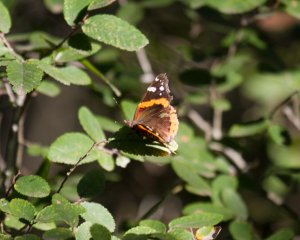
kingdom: Animalia
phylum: Arthropoda
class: Insecta
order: Lepidoptera
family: Nymphalidae
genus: Vanessa
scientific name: Vanessa atalanta
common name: Red Admiral
